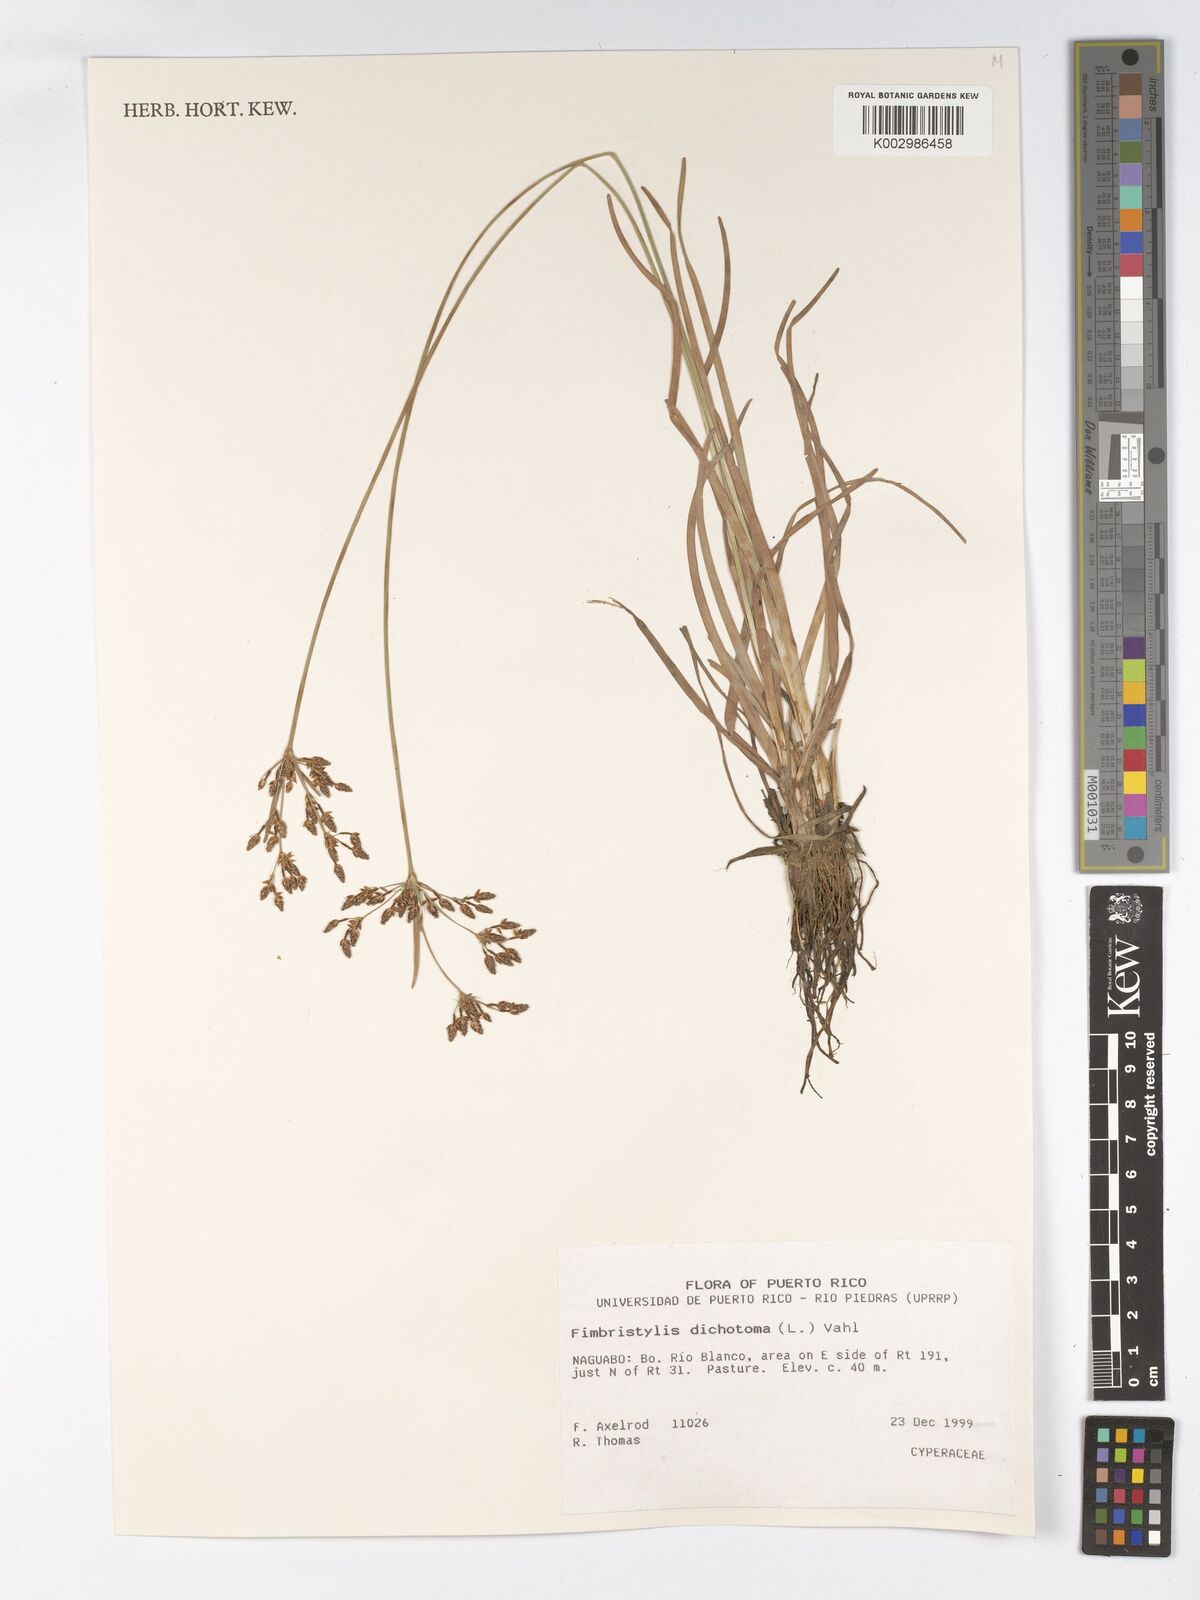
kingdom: Plantae
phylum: Tracheophyta
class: Liliopsida
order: Poales
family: Cyperaceae
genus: Fimbristylis
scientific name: Fimbristylis dichotoma
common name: Forked fimbry
